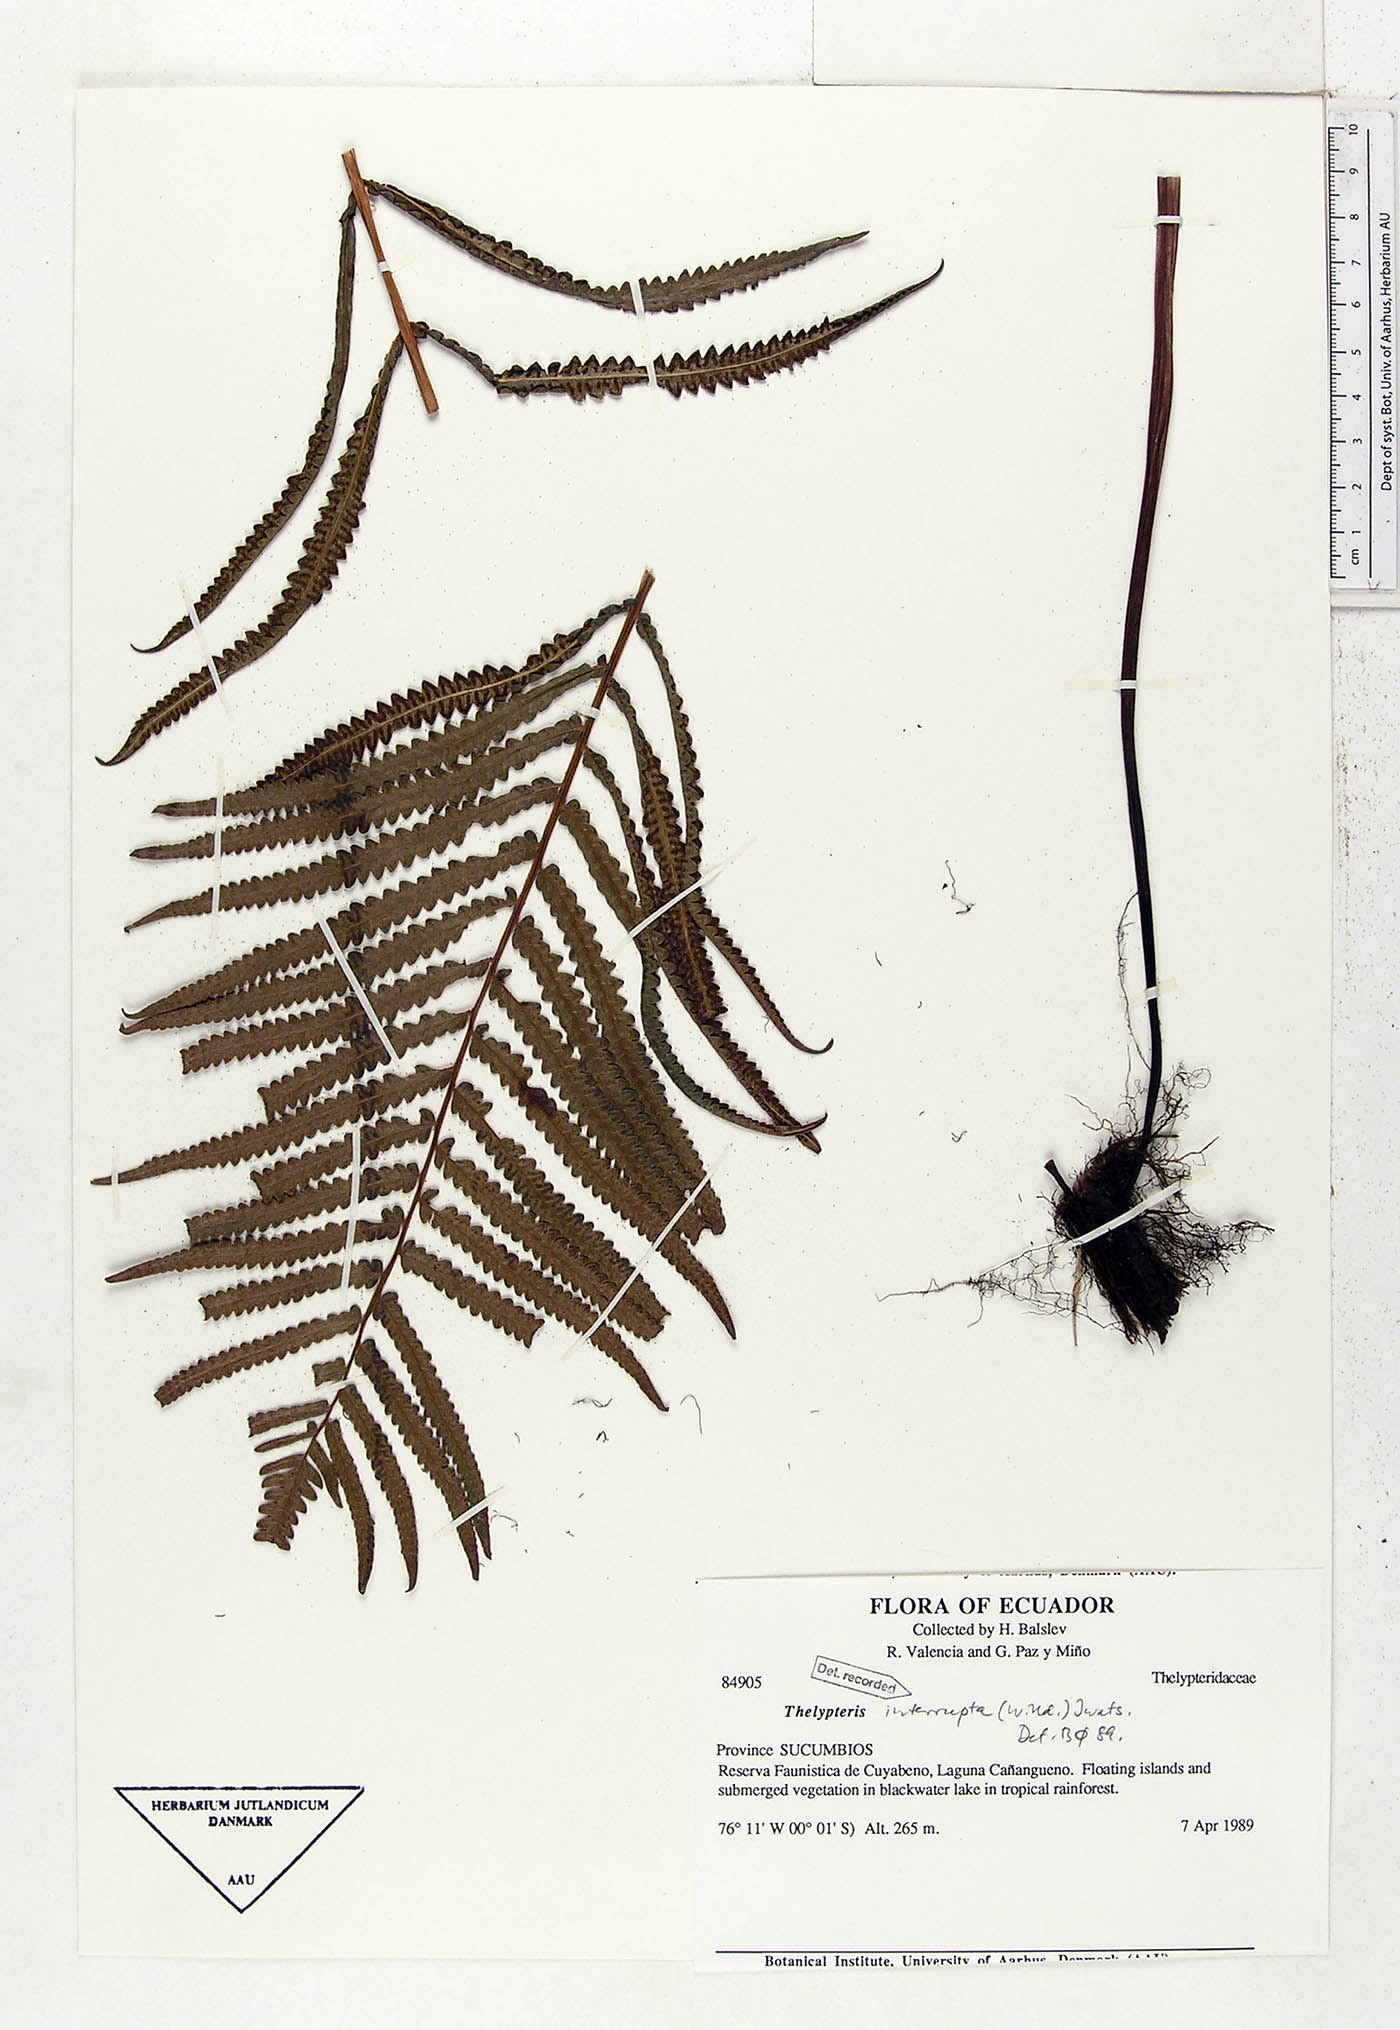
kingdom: Plantae
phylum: Tracheophyta
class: Polypodiopsida
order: Polypodiales
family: Thelypteridaceae
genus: Cyclosorus
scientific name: Cyclosorus interruptus
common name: Neke fern
